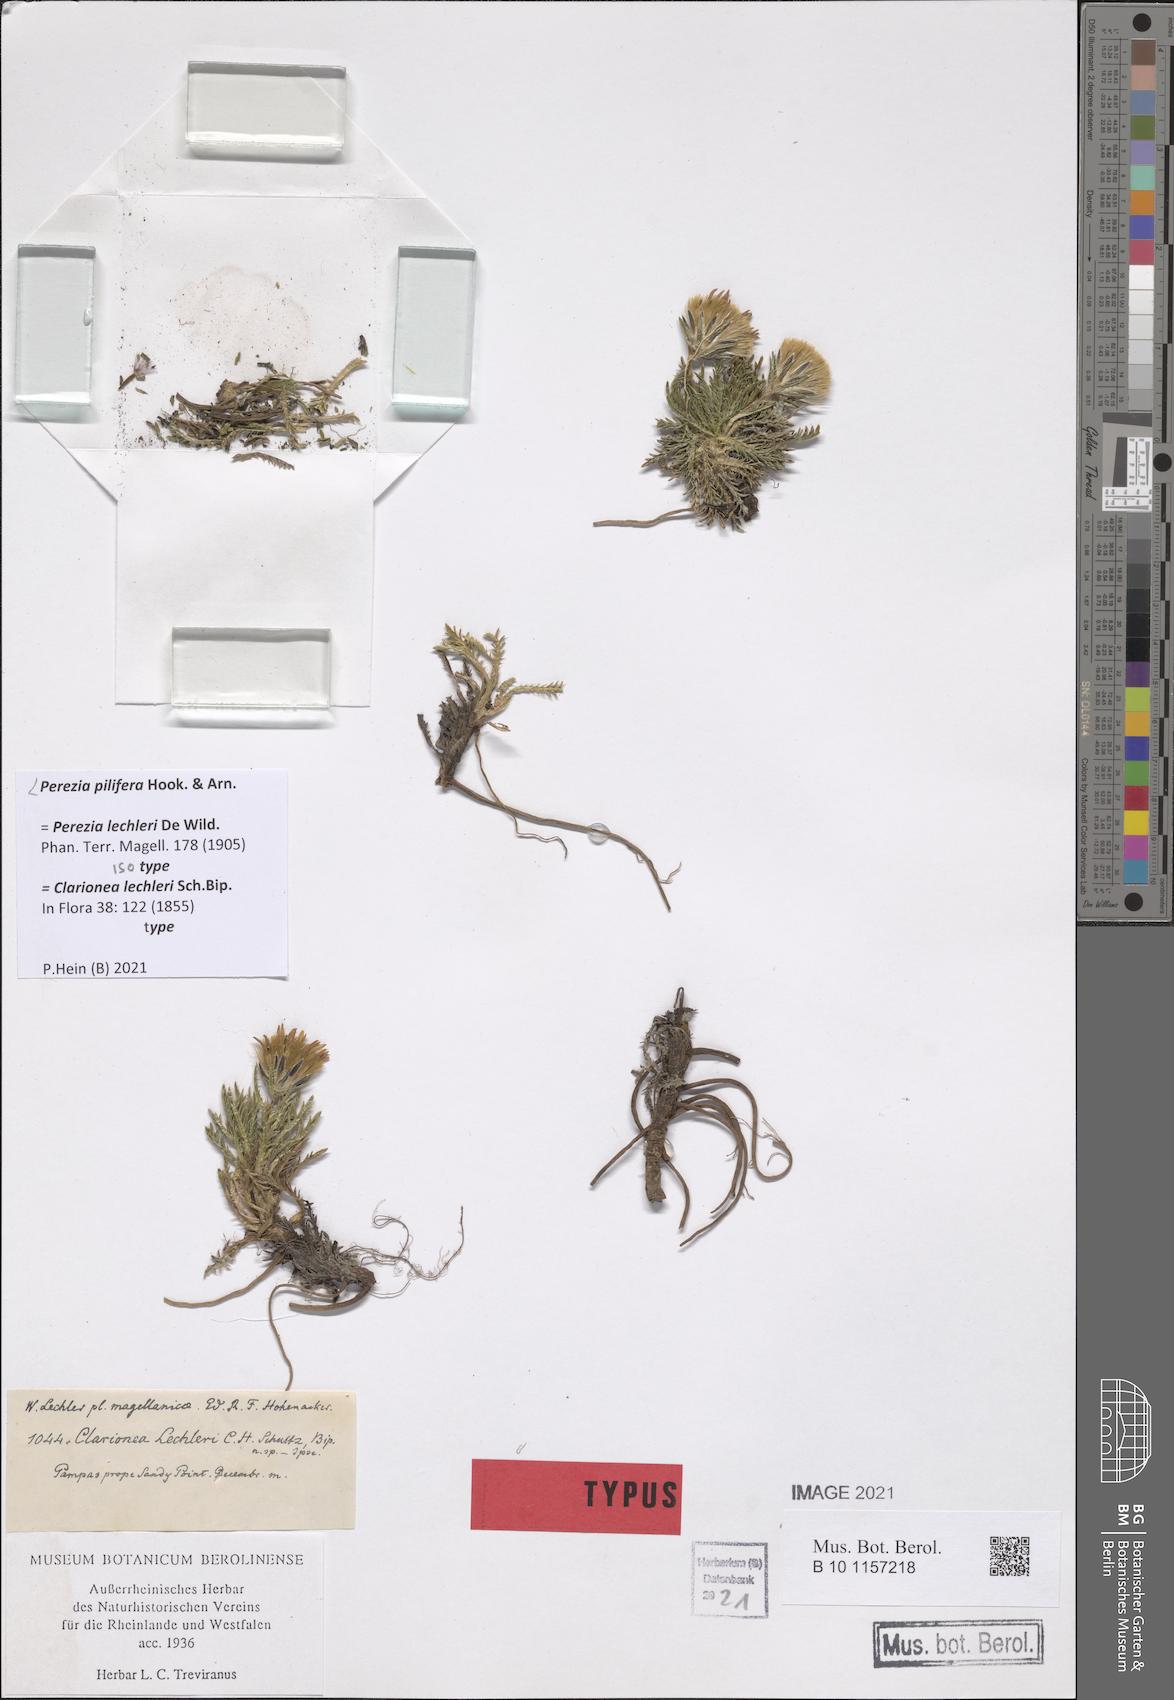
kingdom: Plantae
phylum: Tracheophyta
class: Magnoliopsida
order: Asterales
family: Asteraceae
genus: Perezia
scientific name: Perezia pilifera
